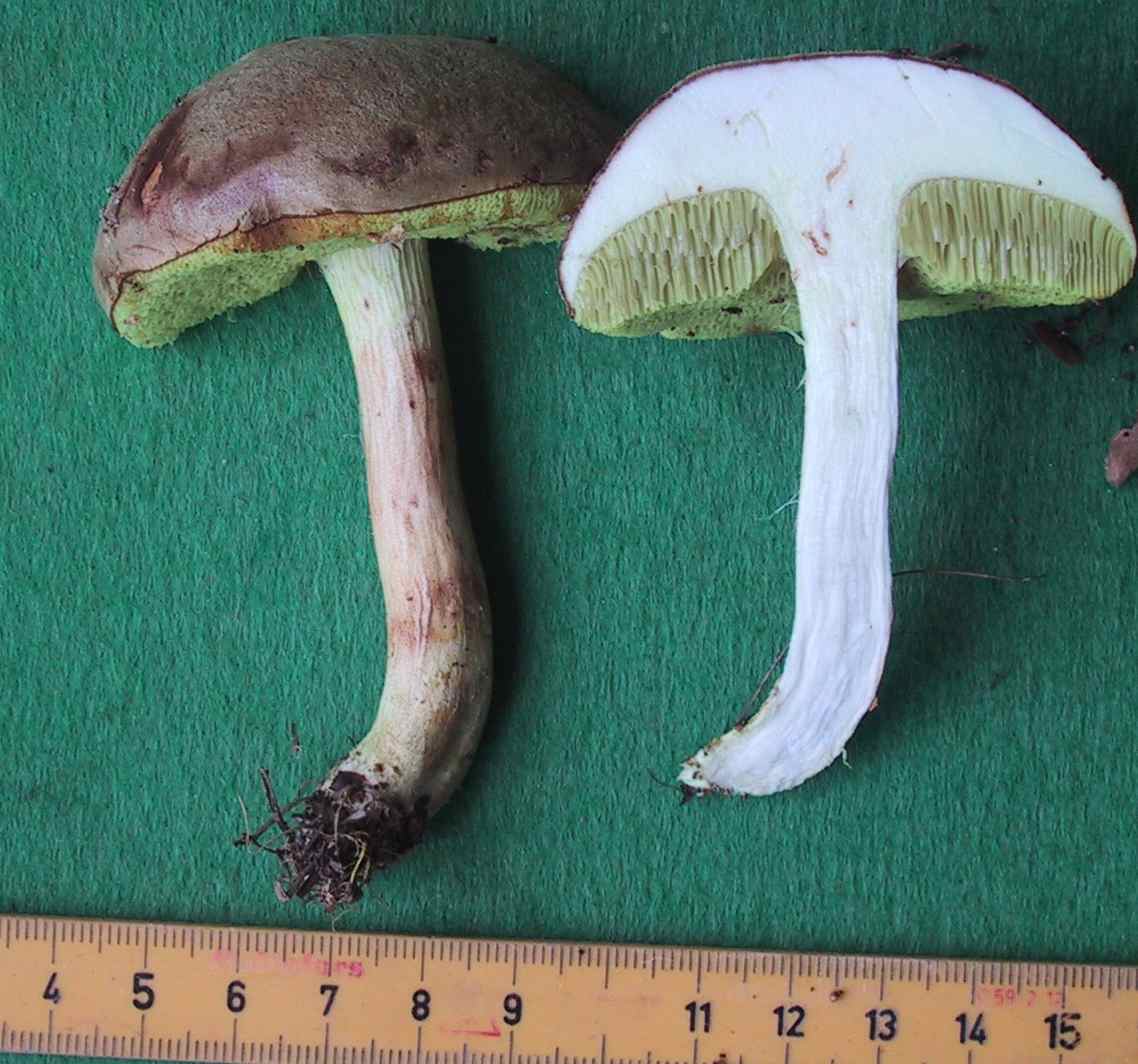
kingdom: Fungi
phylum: Basidiomycota
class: Agaricomycetes
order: Boletales
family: Boletaceae
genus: Xerocomus
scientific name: Xerocomus ferrugineus
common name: vaskeskinds-rørhat
